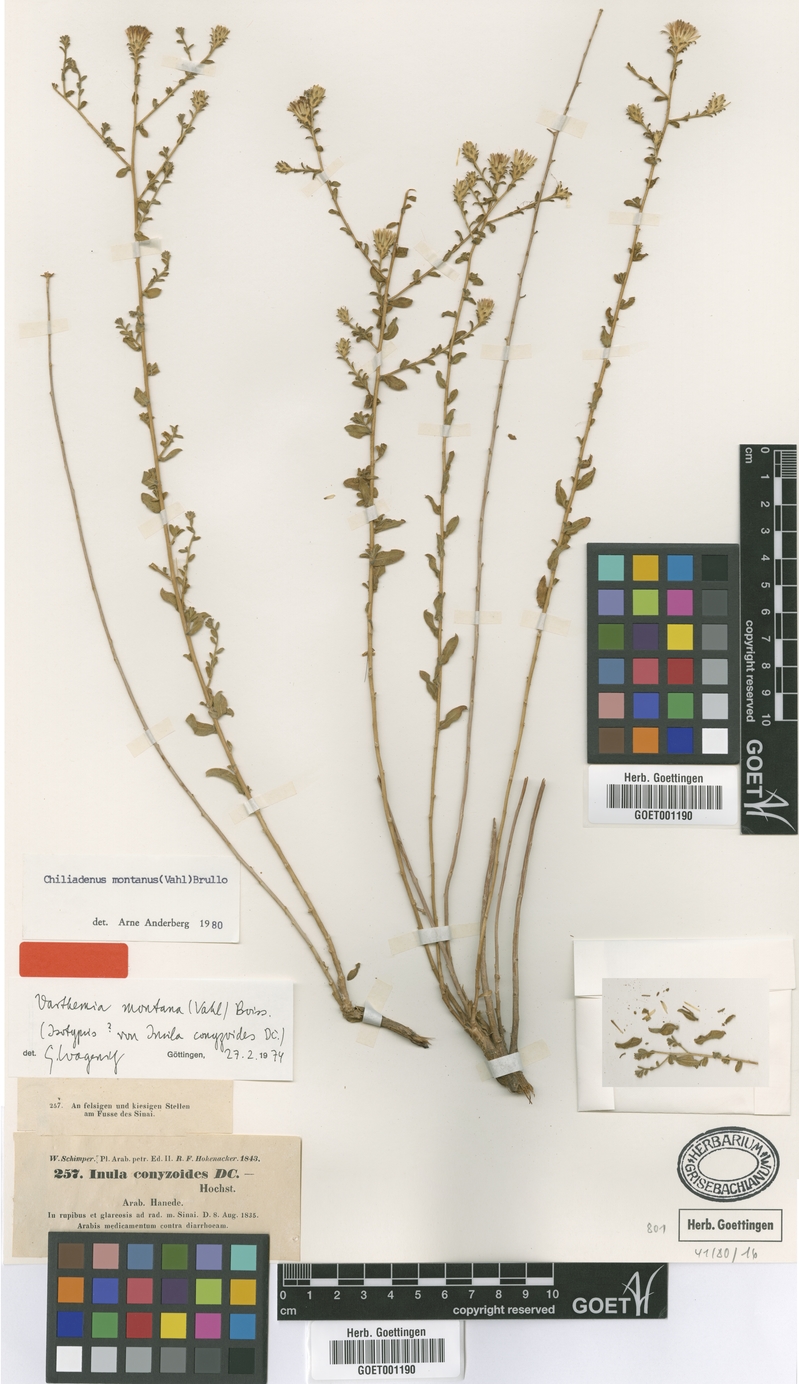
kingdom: Plantae
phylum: Tracheophyta
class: Magnoliopsida
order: Asterales
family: Asteraceae
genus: Chiliadenus
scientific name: Chiliadenus montanus
